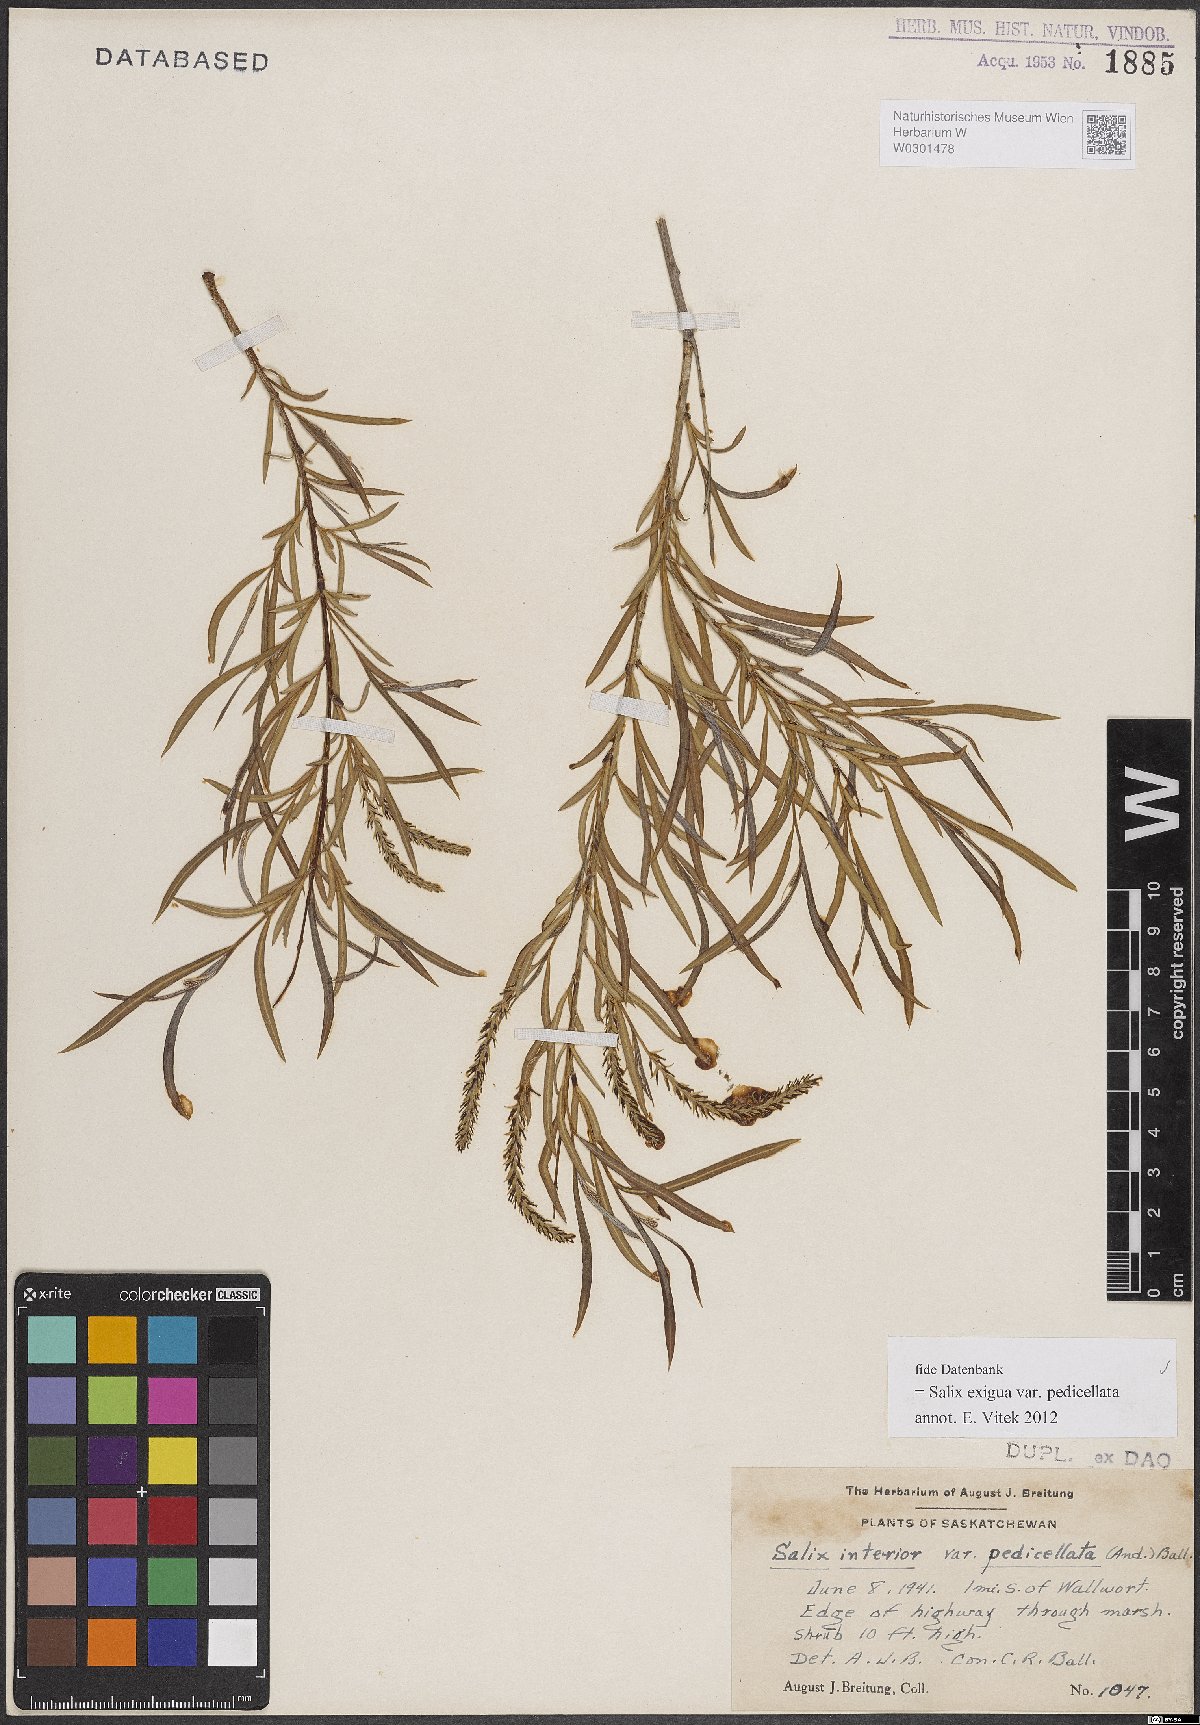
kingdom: Plantae
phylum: Tracheophyta
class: Magnoliopsida
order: Malpighiales
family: Salicaceae
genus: Salix
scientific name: Salix interior
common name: Sandbar willow
